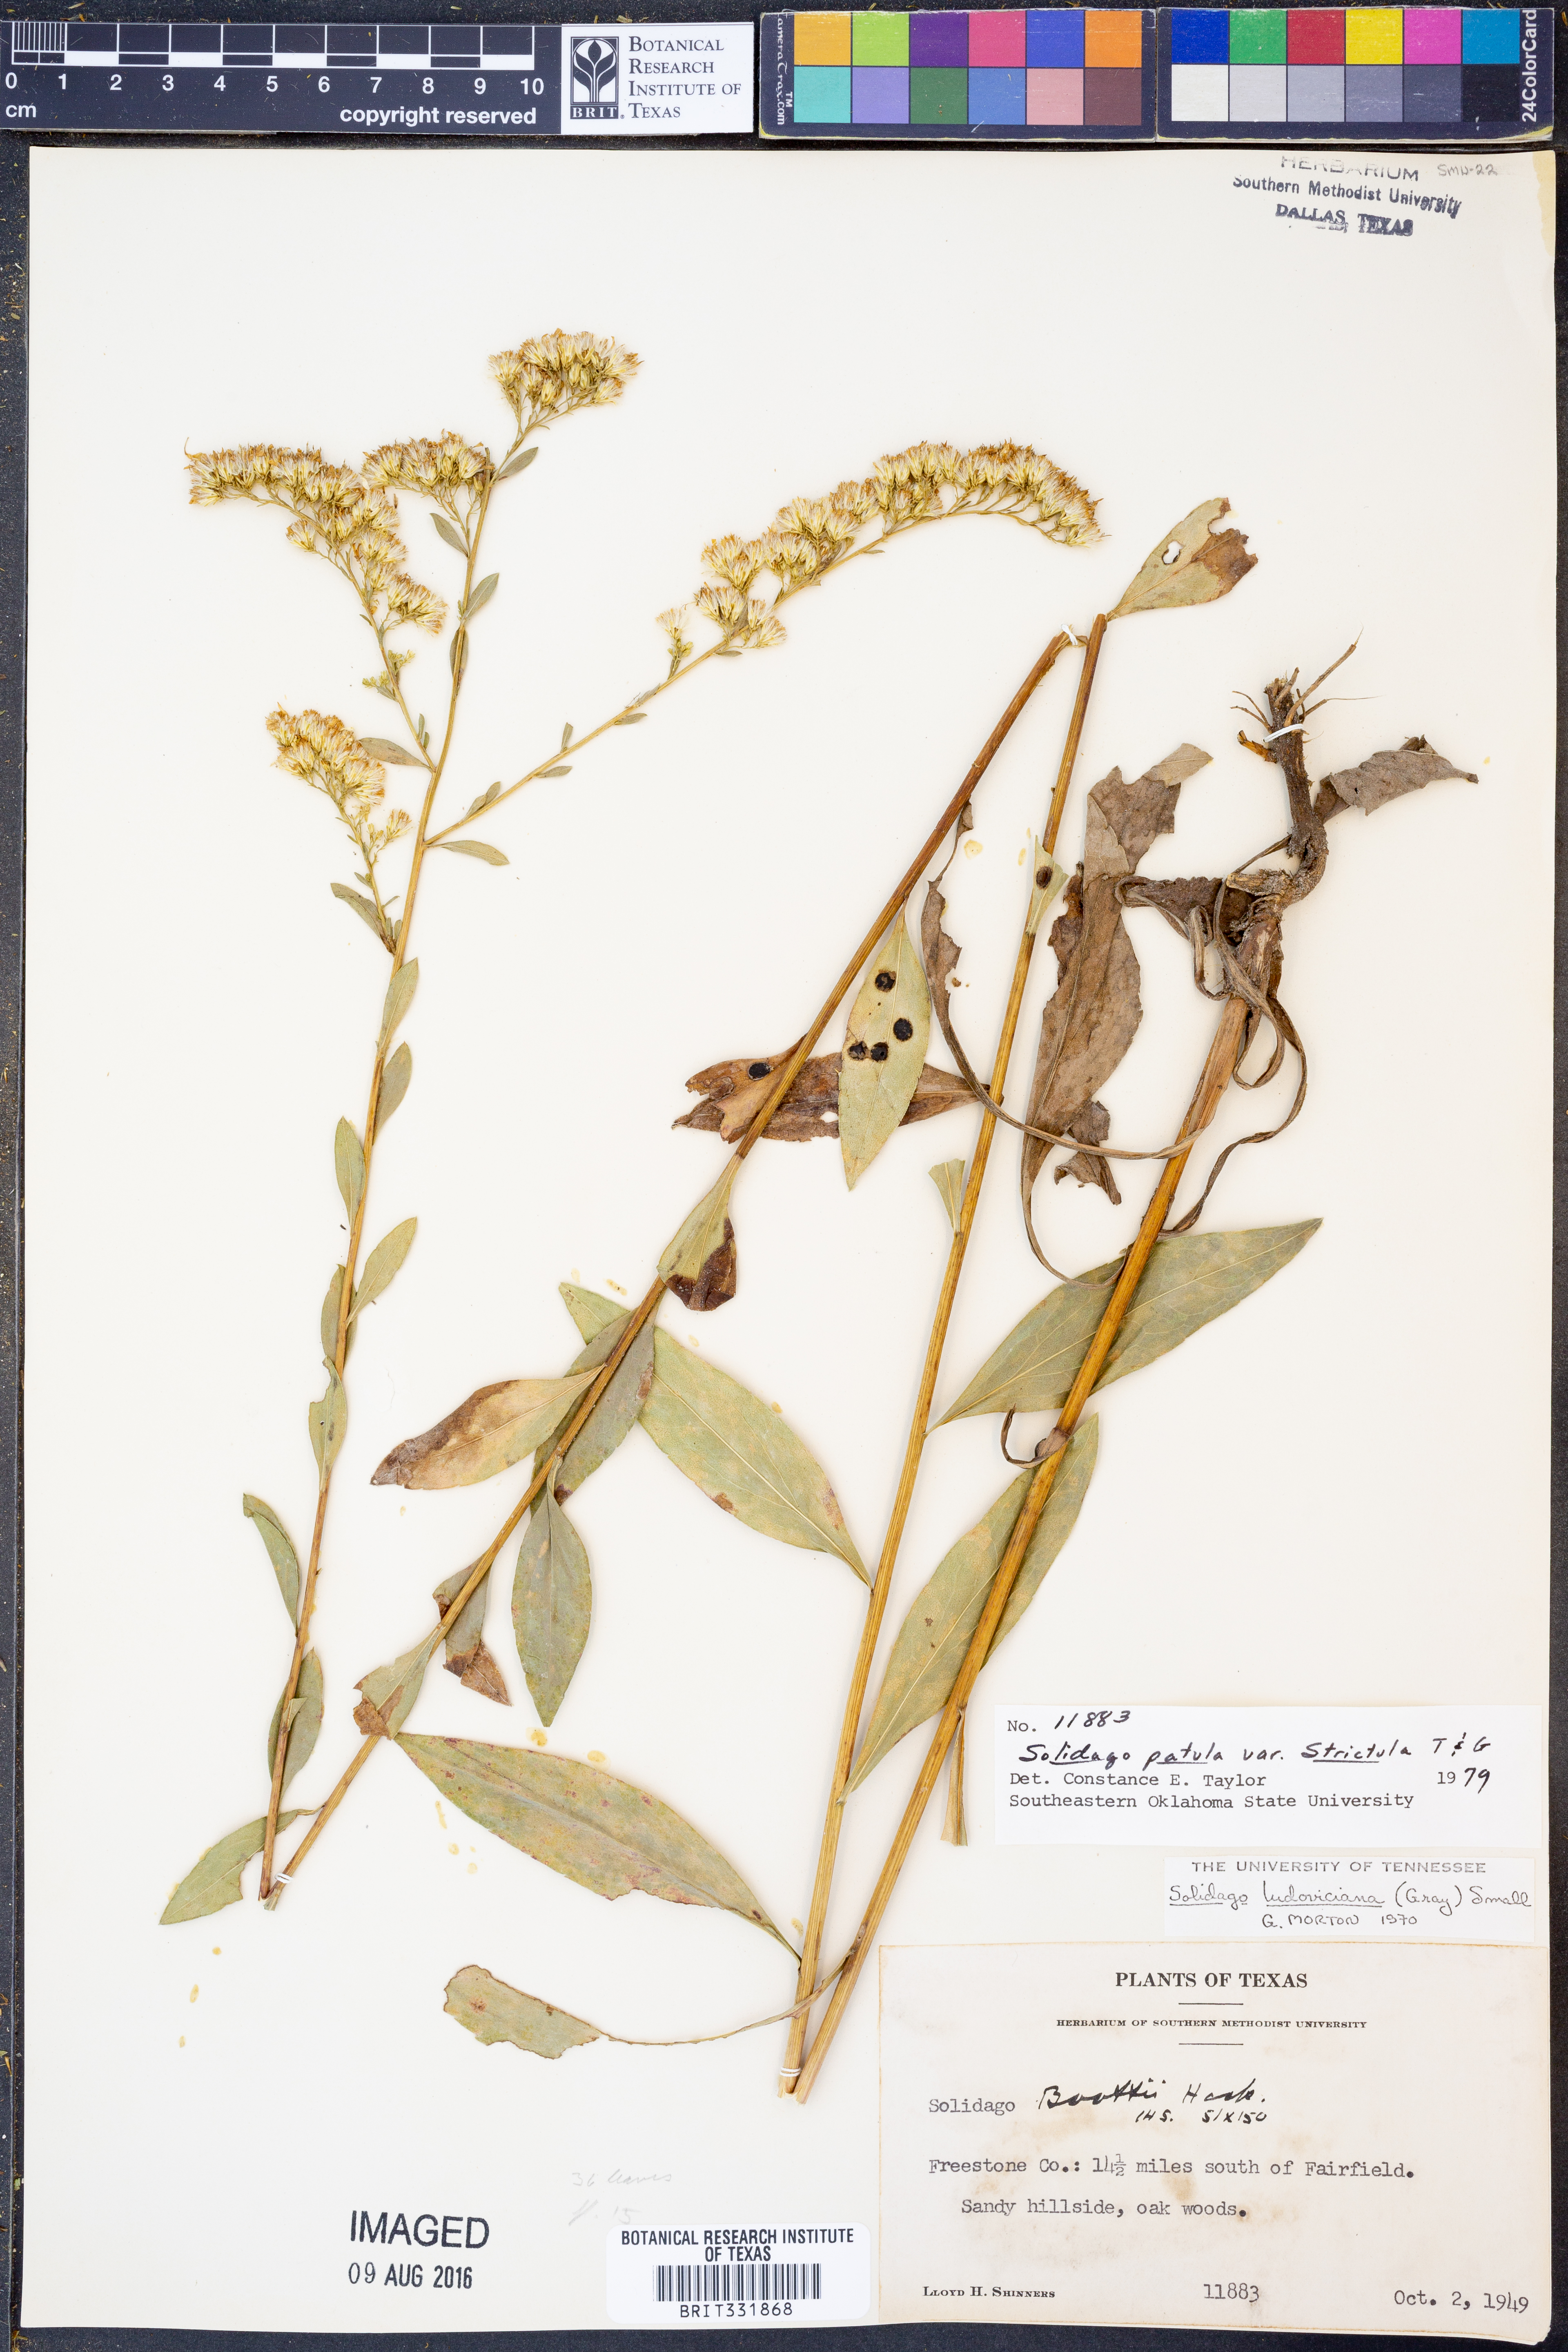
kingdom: Plantae
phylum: Tracheophyta
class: Magnoliopsida
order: Asterales
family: Asteraceae
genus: Solidago
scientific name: Solidago salicina
